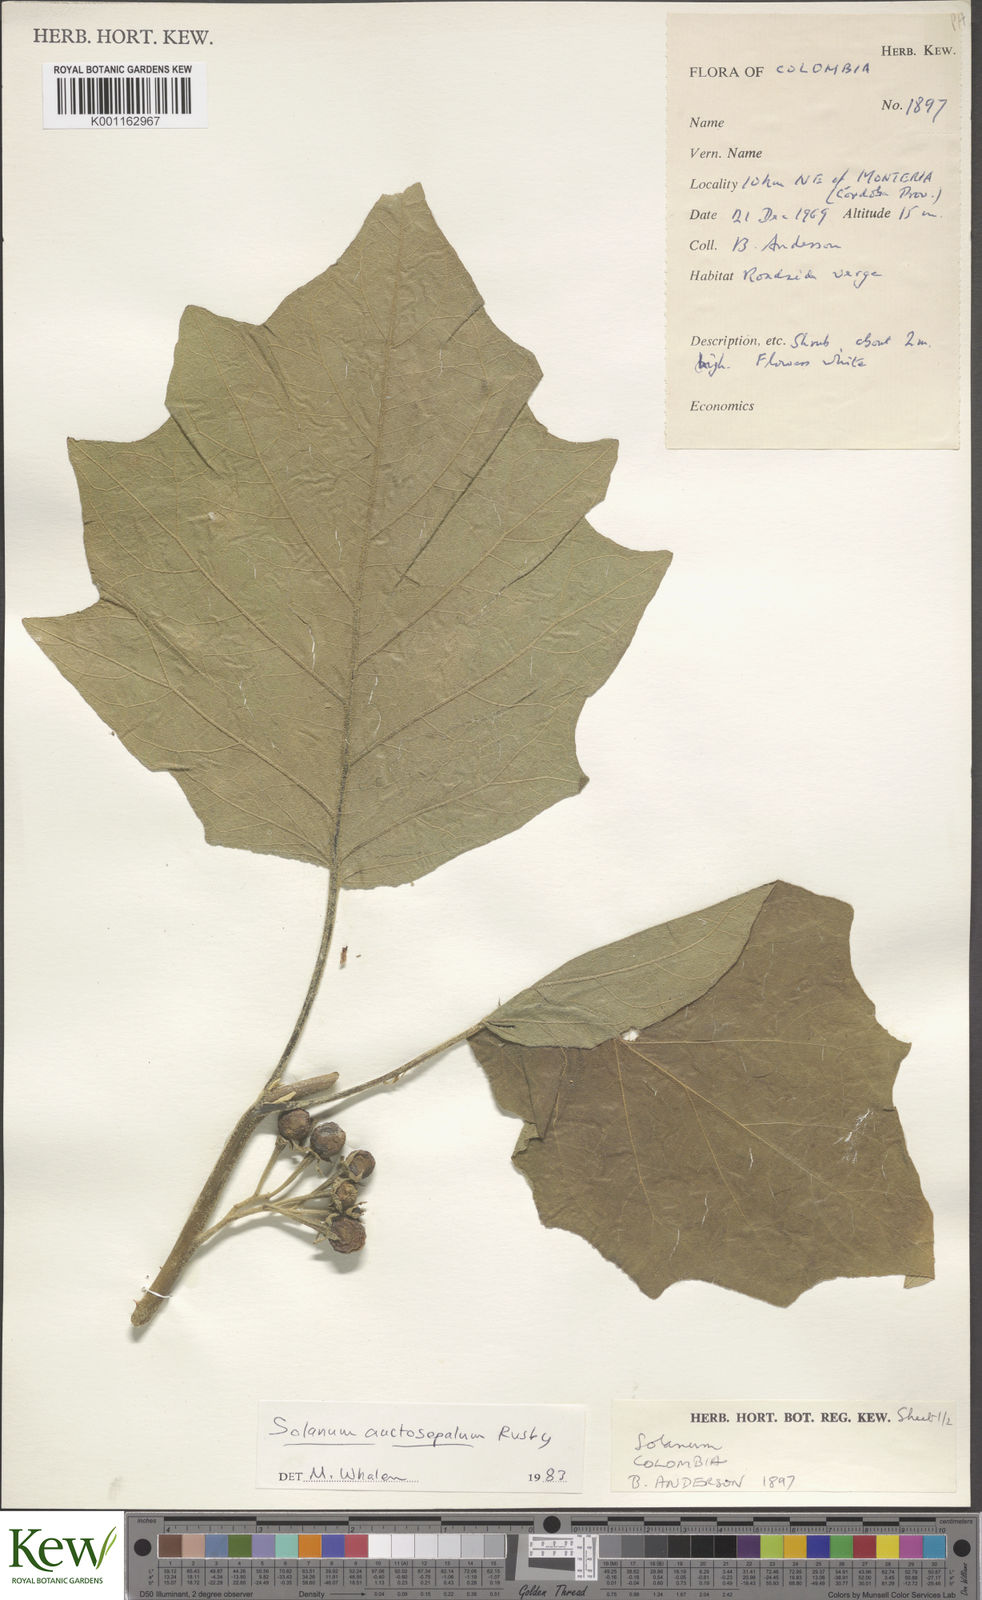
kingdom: Plantae
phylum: Tracheophyta
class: Magnoliopsida
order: Solanales
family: Solanaceae
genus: Solanum
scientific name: Solanum stellatiglandulosum
